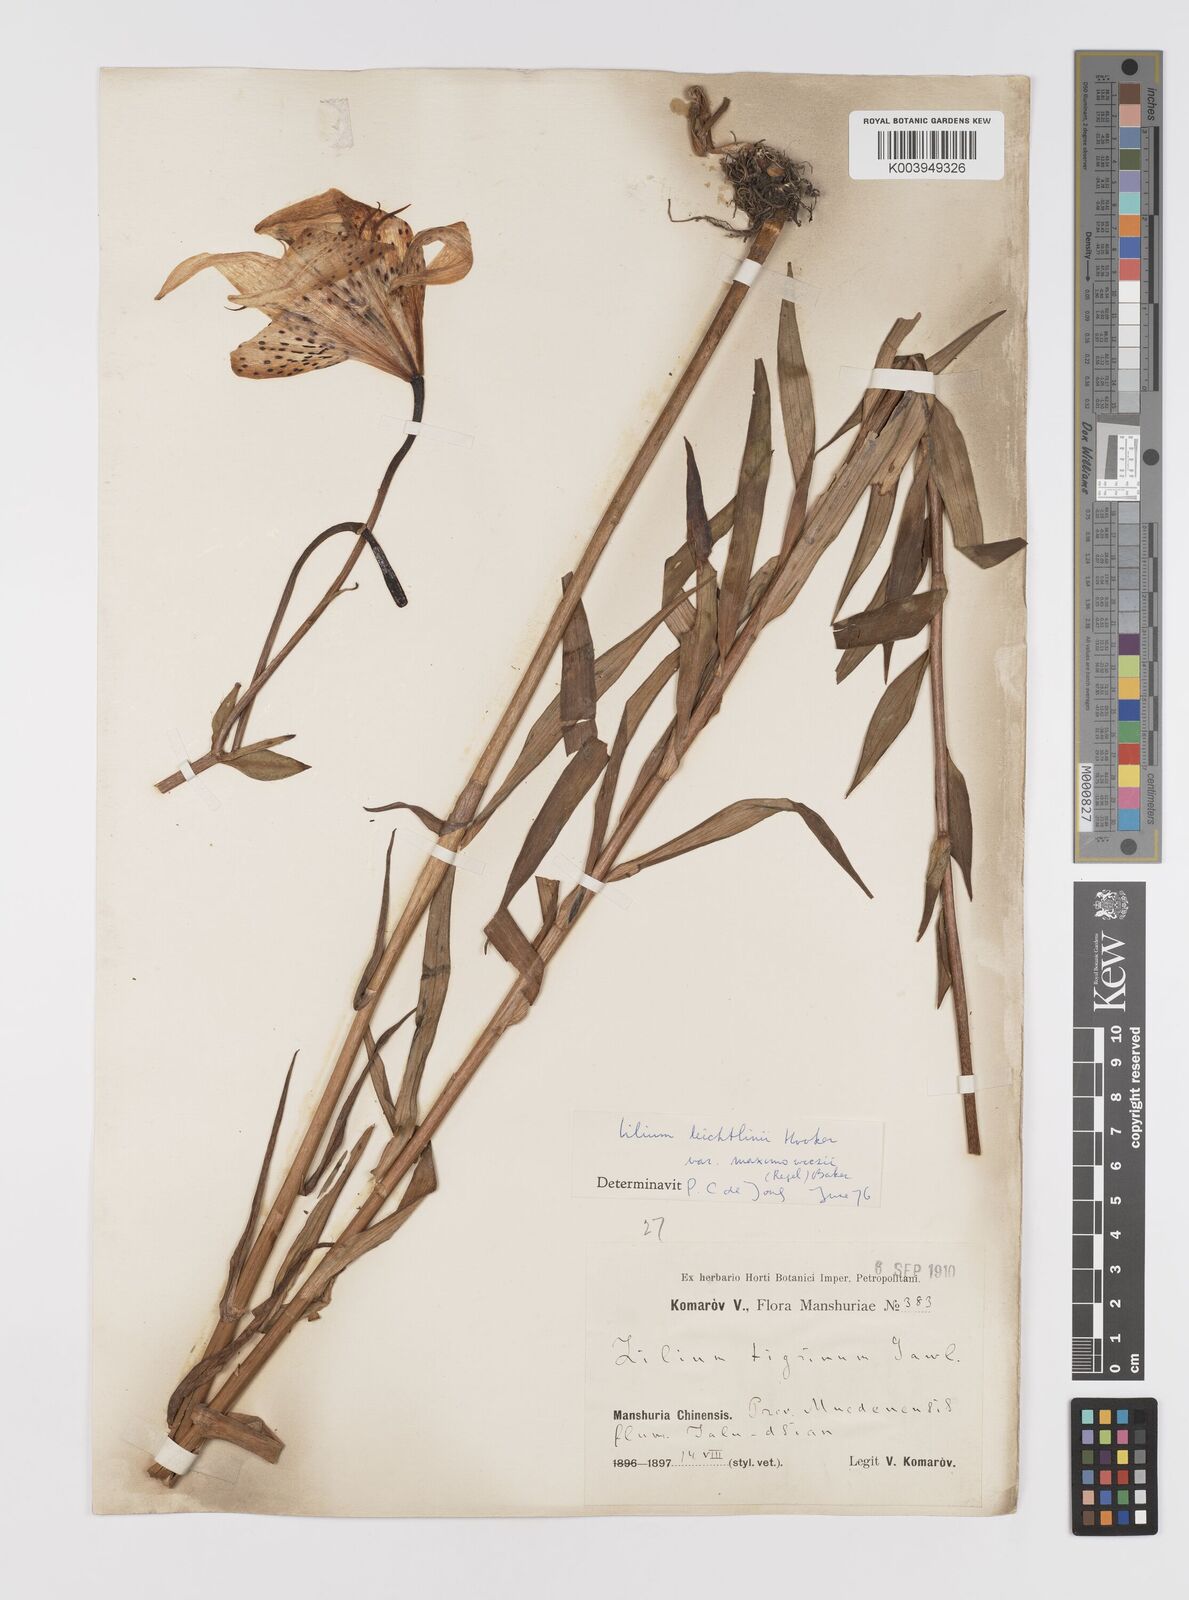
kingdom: Plantae
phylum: Tracheophyta
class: Liliopsida
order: Liliales
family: Liliaceae
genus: Lilium
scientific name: Lilium leichtlinii
